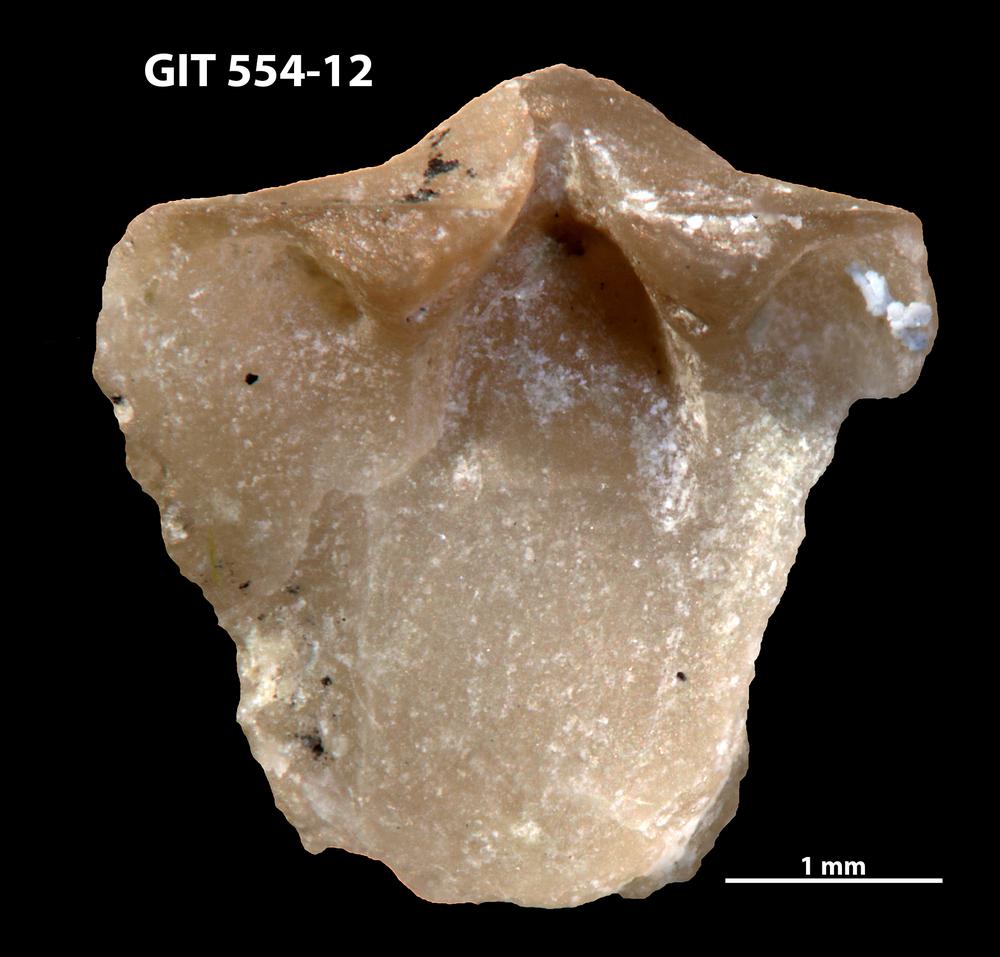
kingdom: Animalia
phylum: Brachiopoda
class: Rhynchonellata
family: Dalmanellidae
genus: Onniella
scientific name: Onniella trigona
